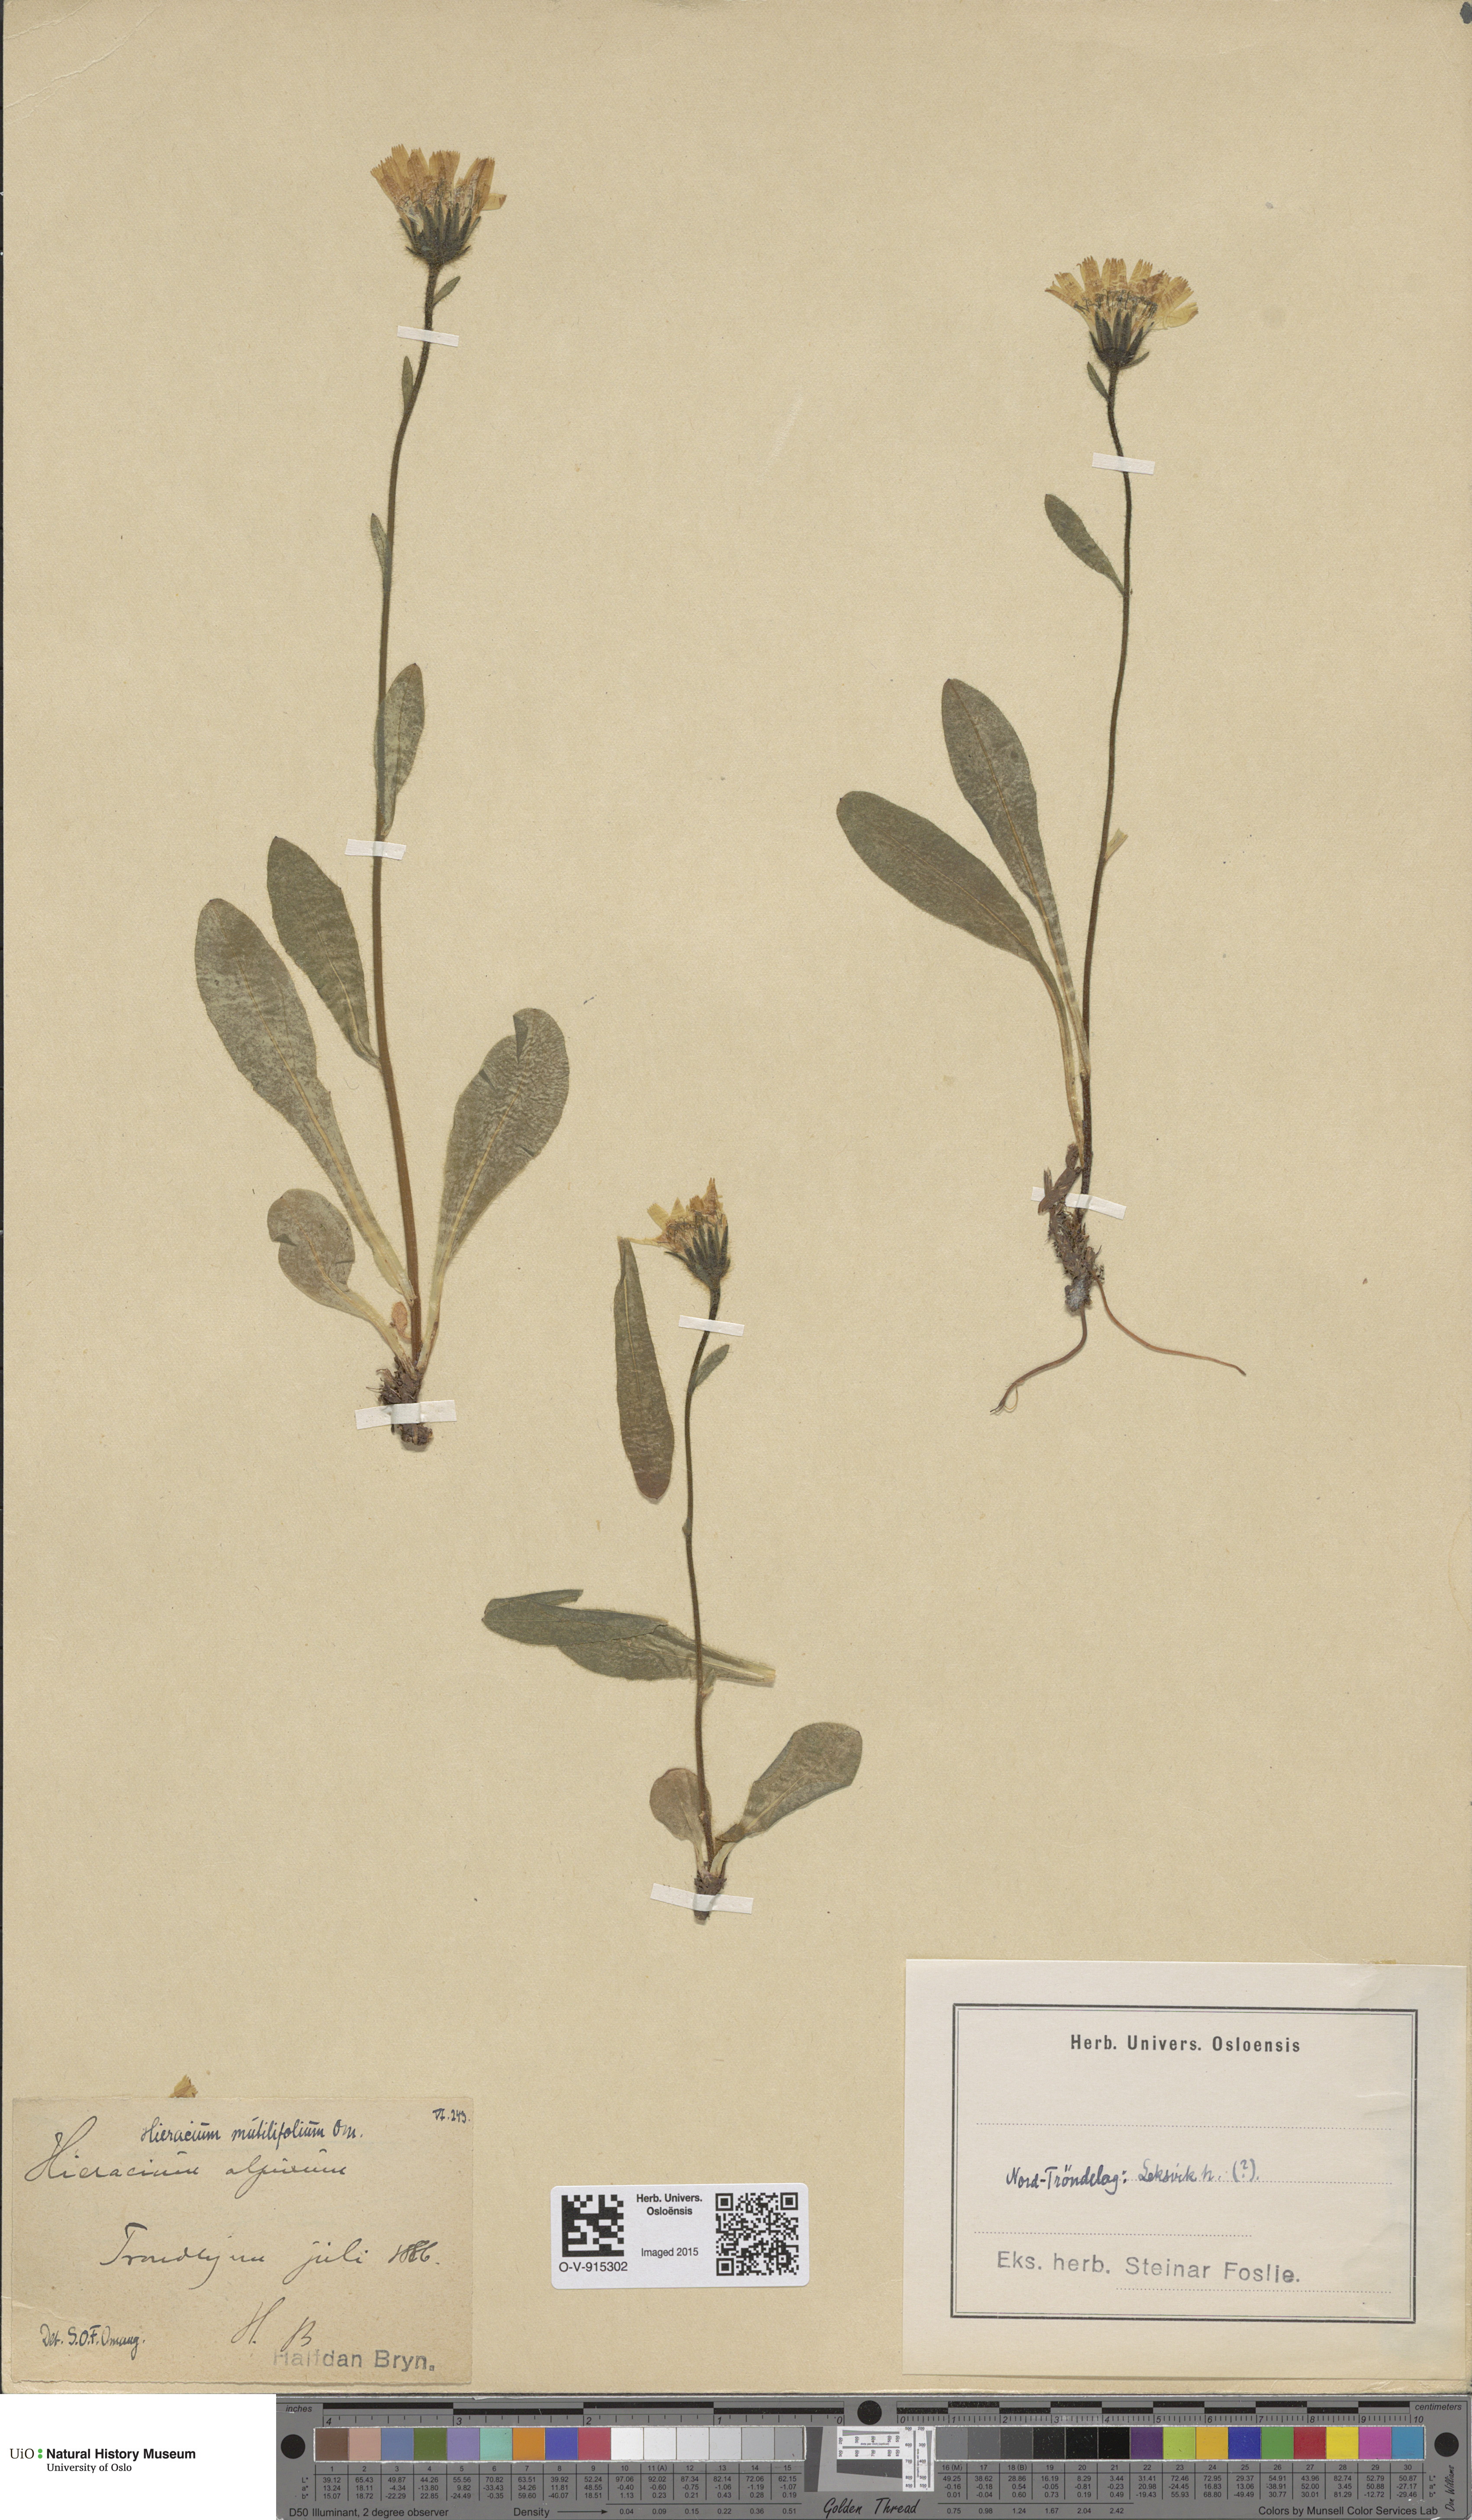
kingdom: Plantae
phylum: Tracheophyta
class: Magnoliopsida
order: Asterales
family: Asteraceae
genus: Hieracium
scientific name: Hieracium alpinum
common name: Alpine hawkweed
